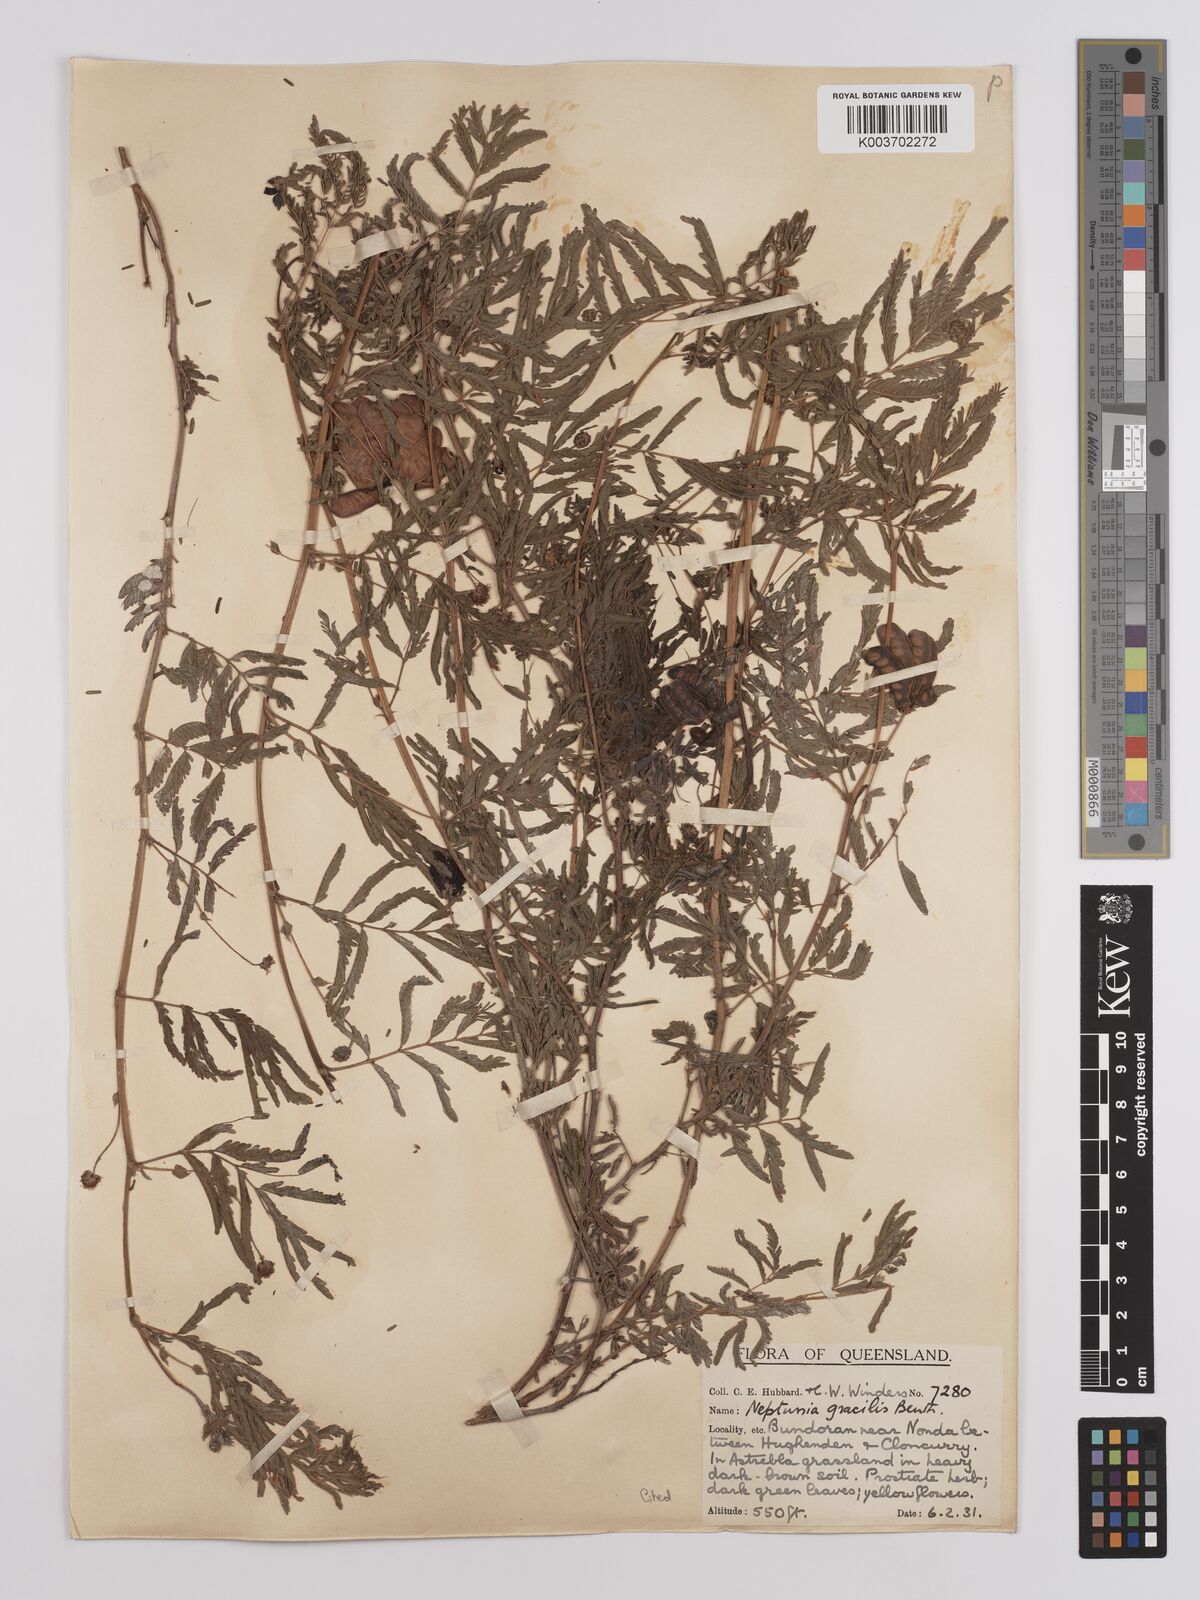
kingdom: Plantae
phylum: Tracheophyta
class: Magnoliopsida
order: Fabales
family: Fabaceae
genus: Neptunia
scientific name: Neptunia gracilis
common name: Sensitive-plant
